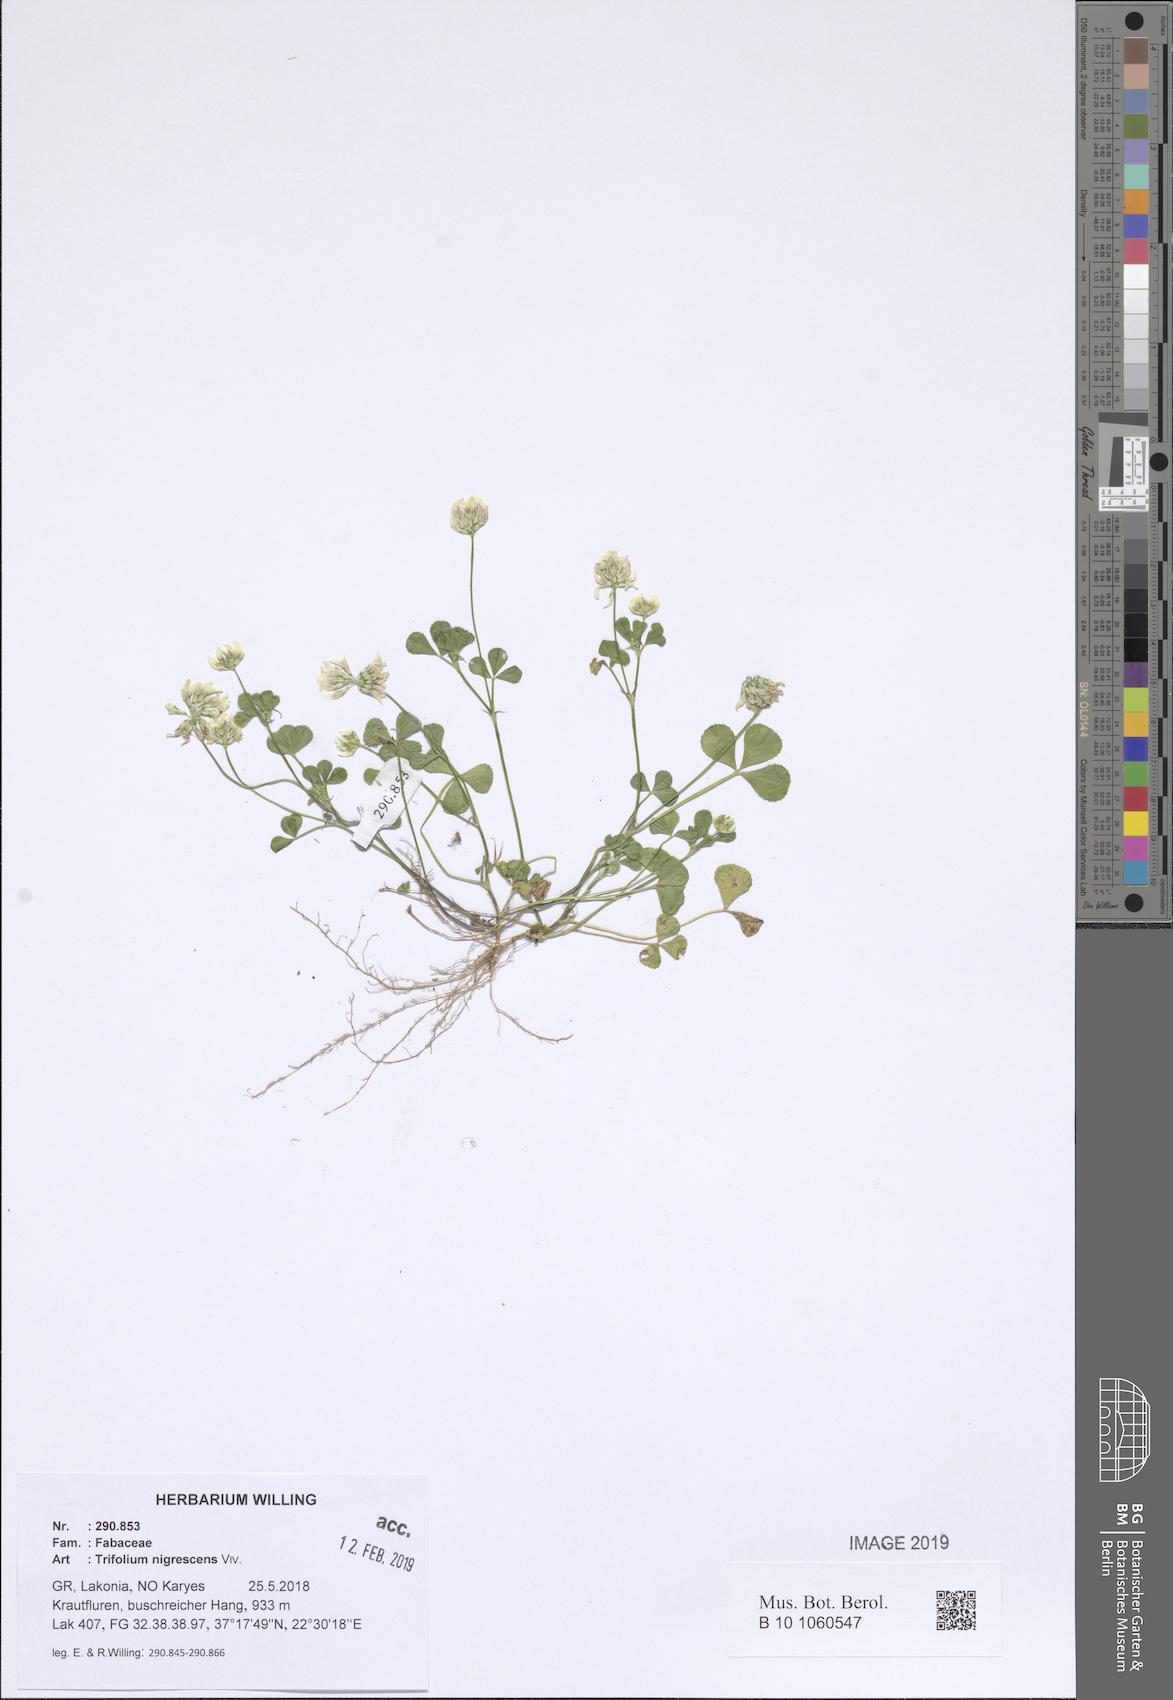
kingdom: Plantae
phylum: Tracheophyta
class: Magnoliopsida
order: Fabales
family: Fabaceae
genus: Trifolium
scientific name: Trifolium nigrescens
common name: Small white clover
